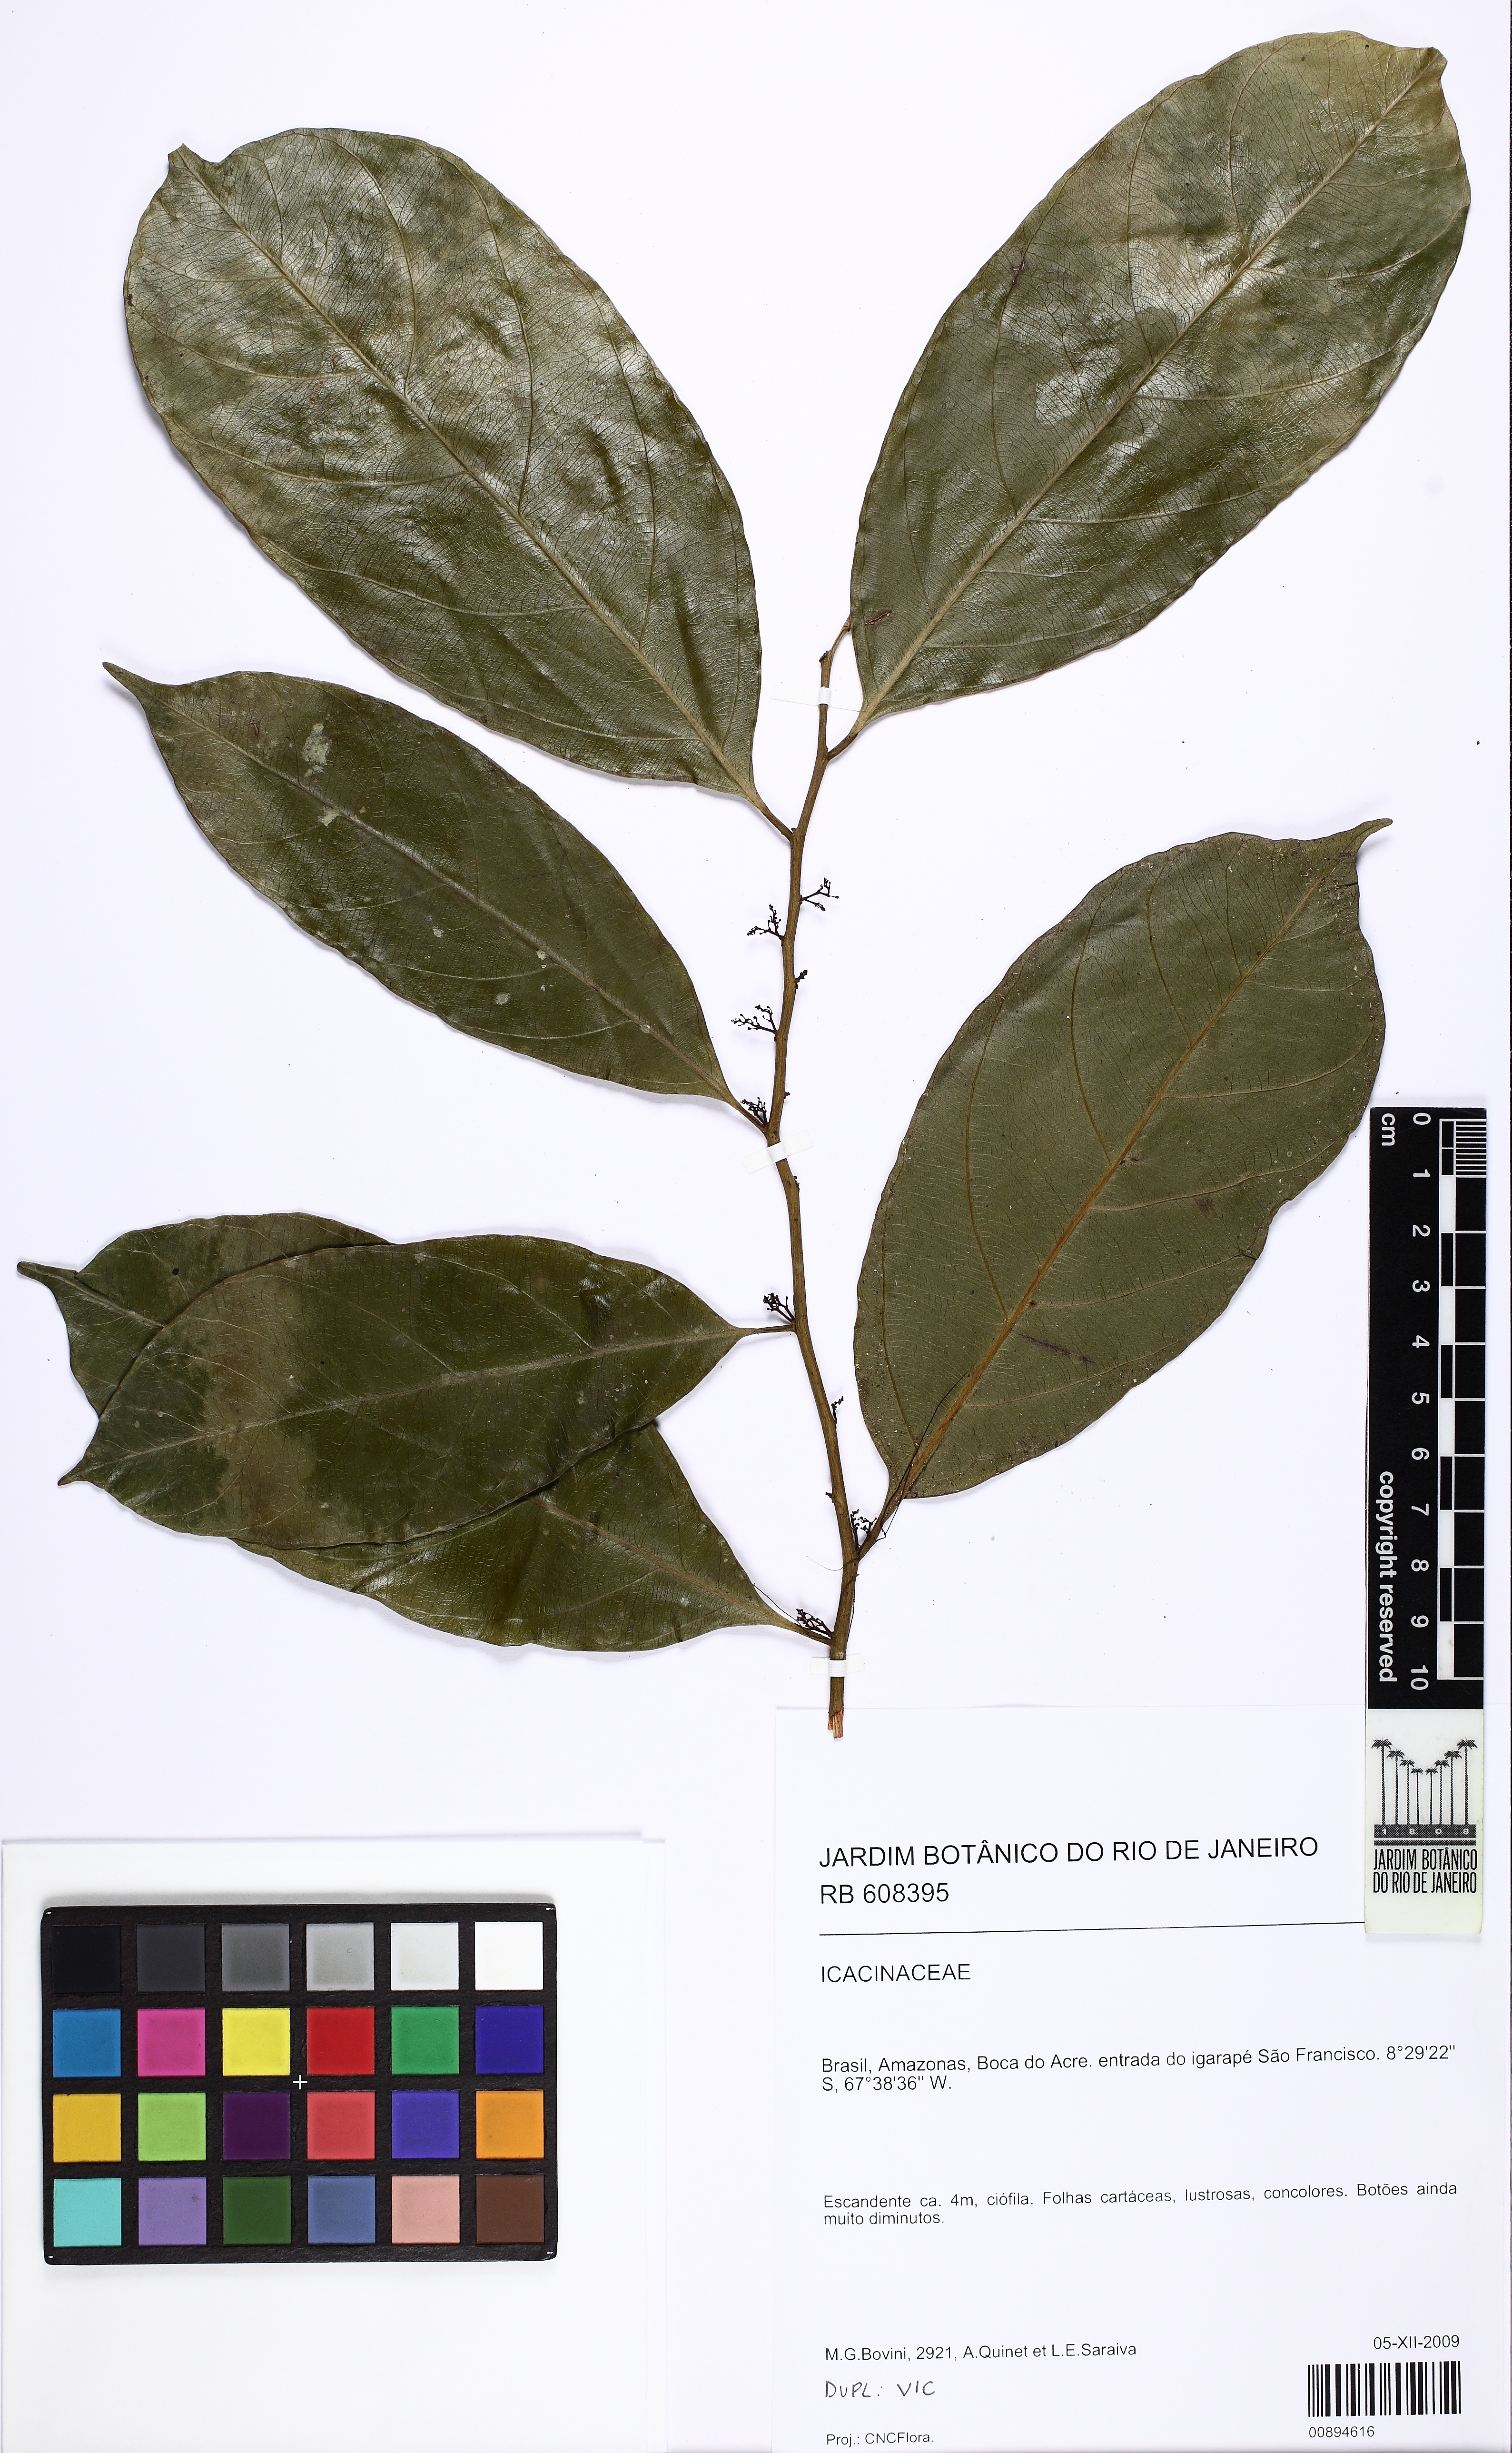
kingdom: Plantae
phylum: Tracheophyta
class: Magnoliopsida
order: Icacinales
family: Icacinaceae
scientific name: Icacinaceae
